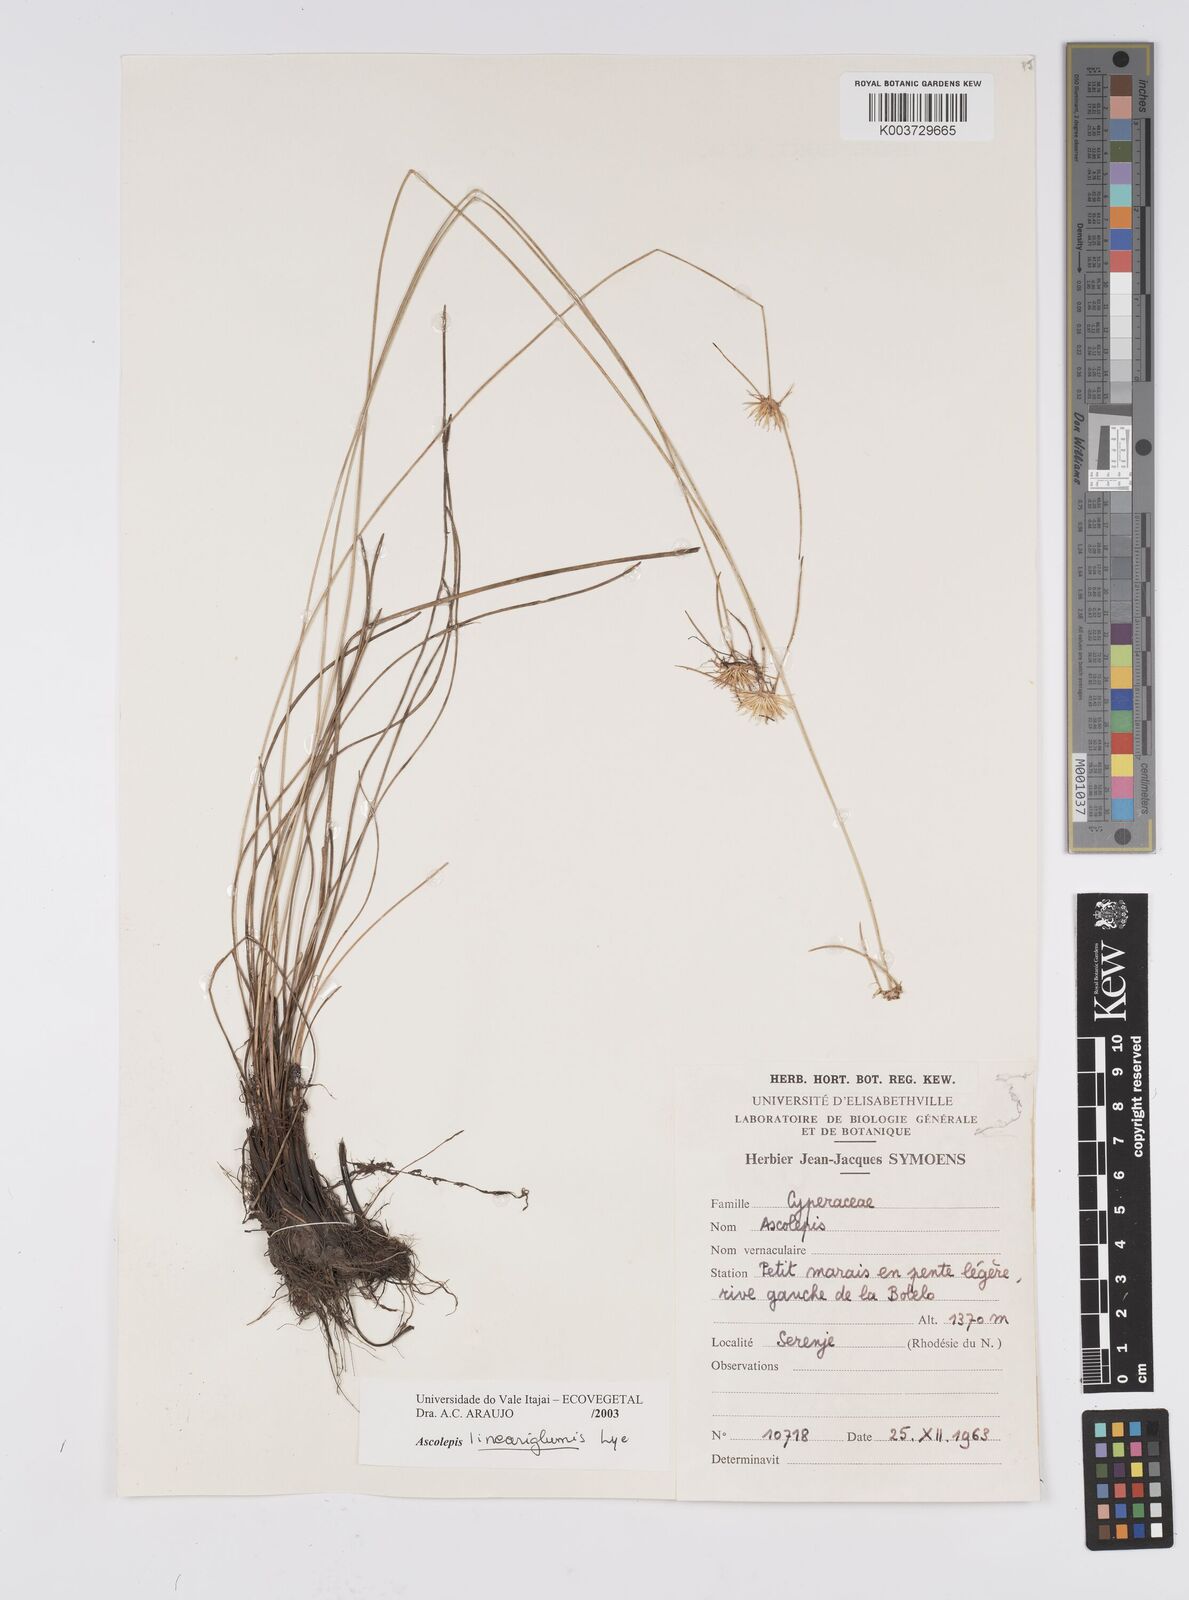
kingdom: Plantae
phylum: Tracheophyta
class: Liliopsida
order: Poales
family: Cyperaceae
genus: Cyperus
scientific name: Cyperus
